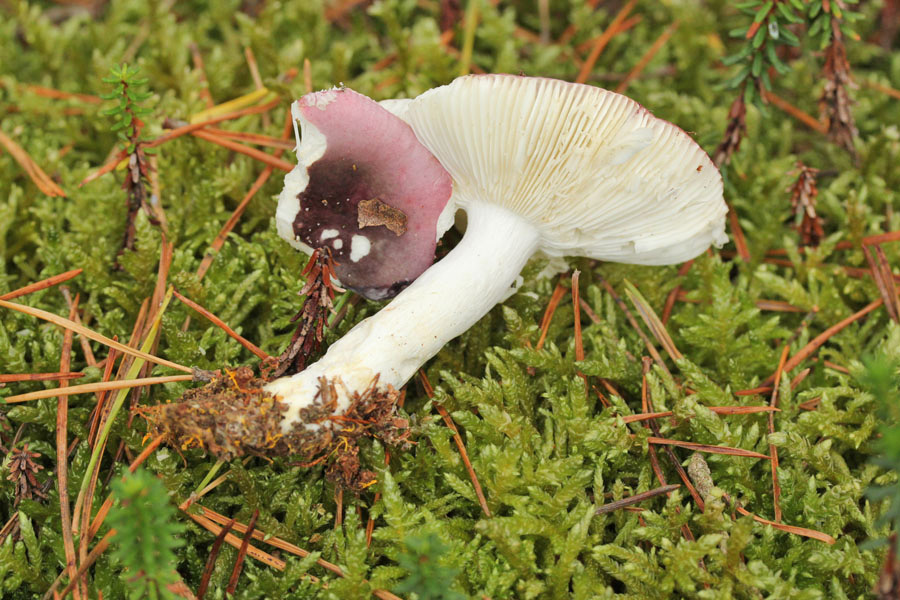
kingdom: Fungi
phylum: Basidiomycota
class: Agaricomycetes
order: Russulales
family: Russulaceae
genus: Russula
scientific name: Russula atrorubens
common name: sortrød skørhat
